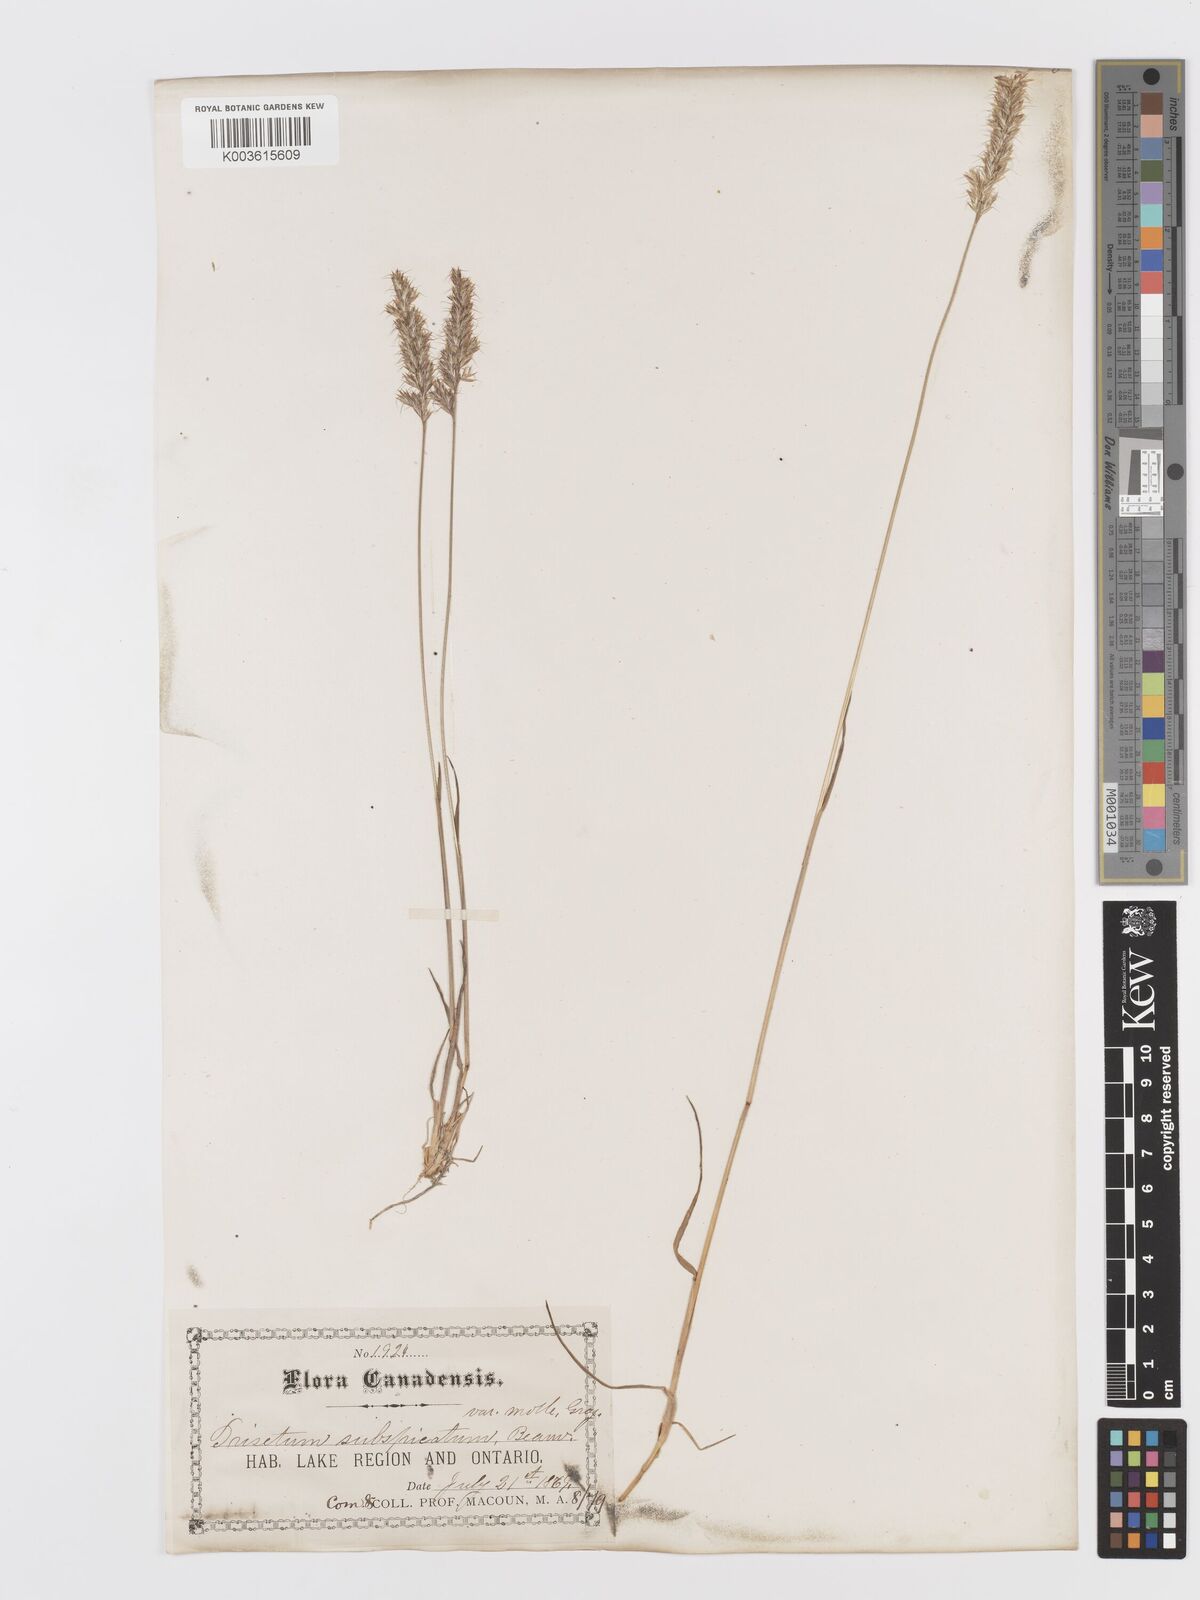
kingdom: Plantae
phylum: Tracheophyta
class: Liliopsida
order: Poales
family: Poaceae
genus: Koeleria
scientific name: Koeleria spicata
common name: Mountain trisetum
